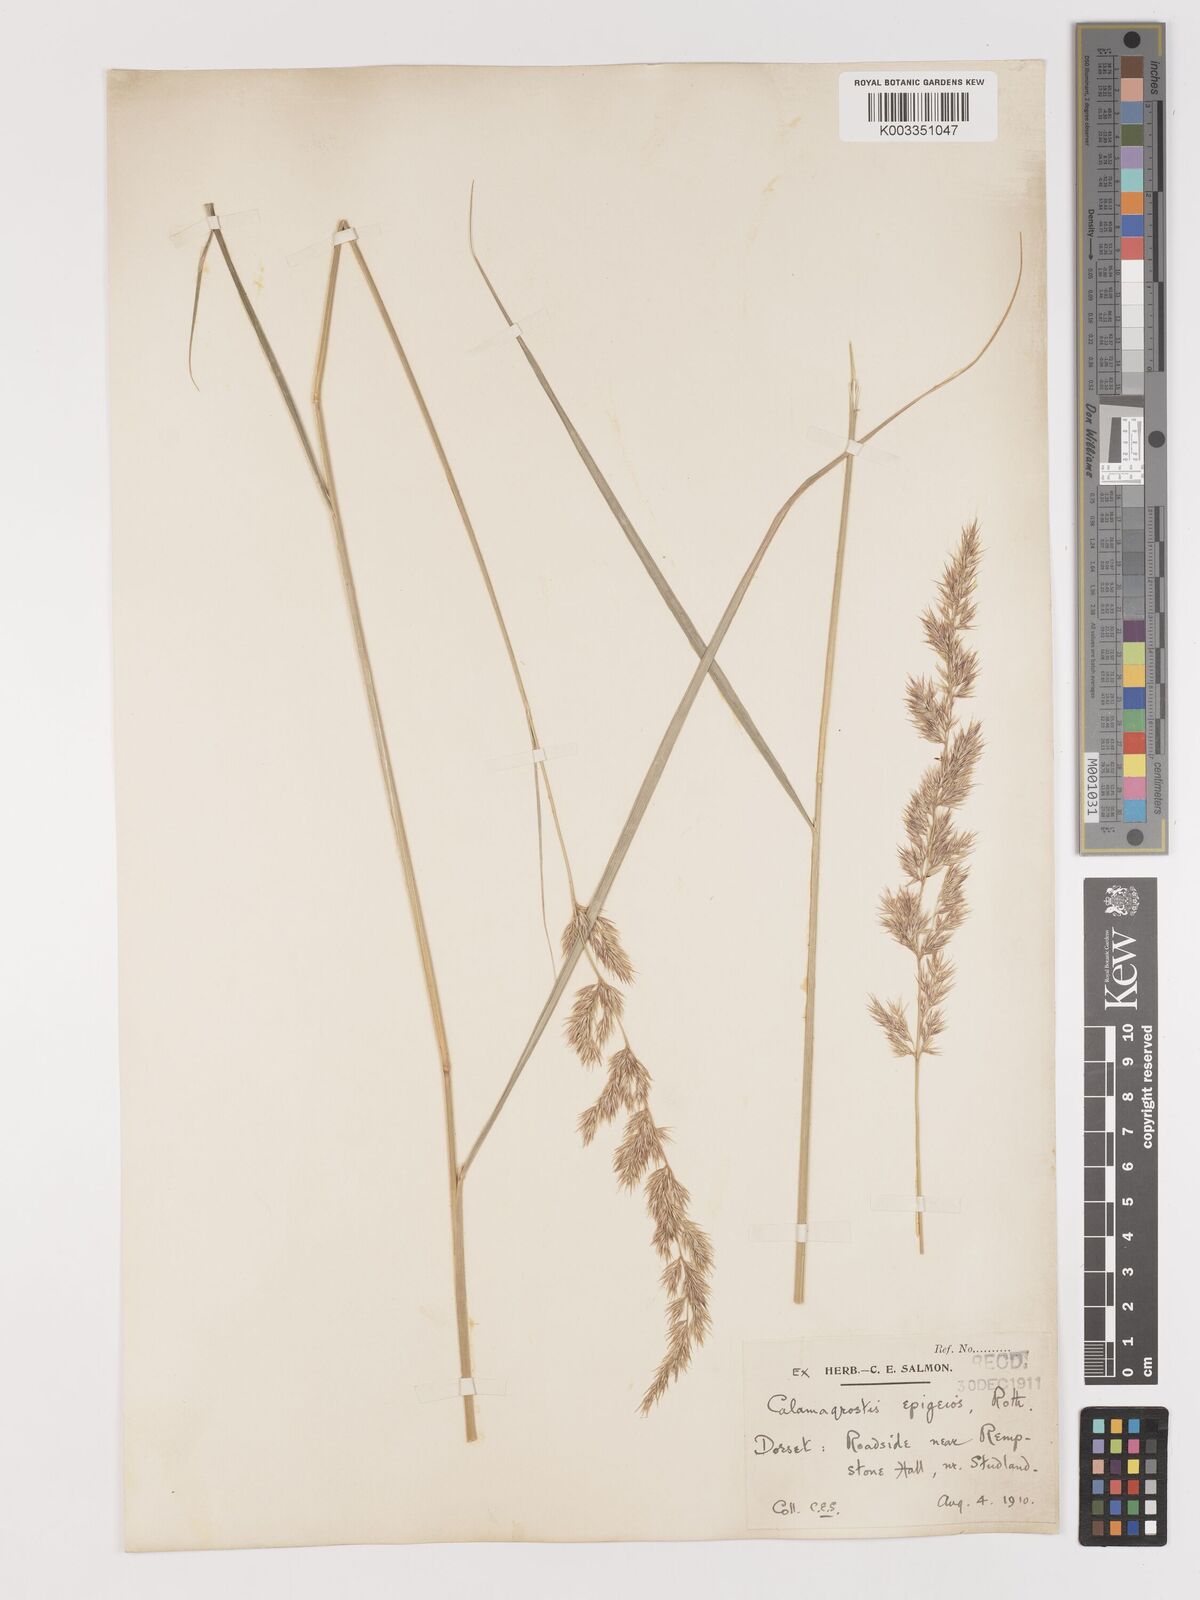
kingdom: Plantae
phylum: Tracheophyta
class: Liliopsida
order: Poales
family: Poaceae
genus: Calamagrostis
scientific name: Calamagrostis epigejos
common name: Wood small-reed
